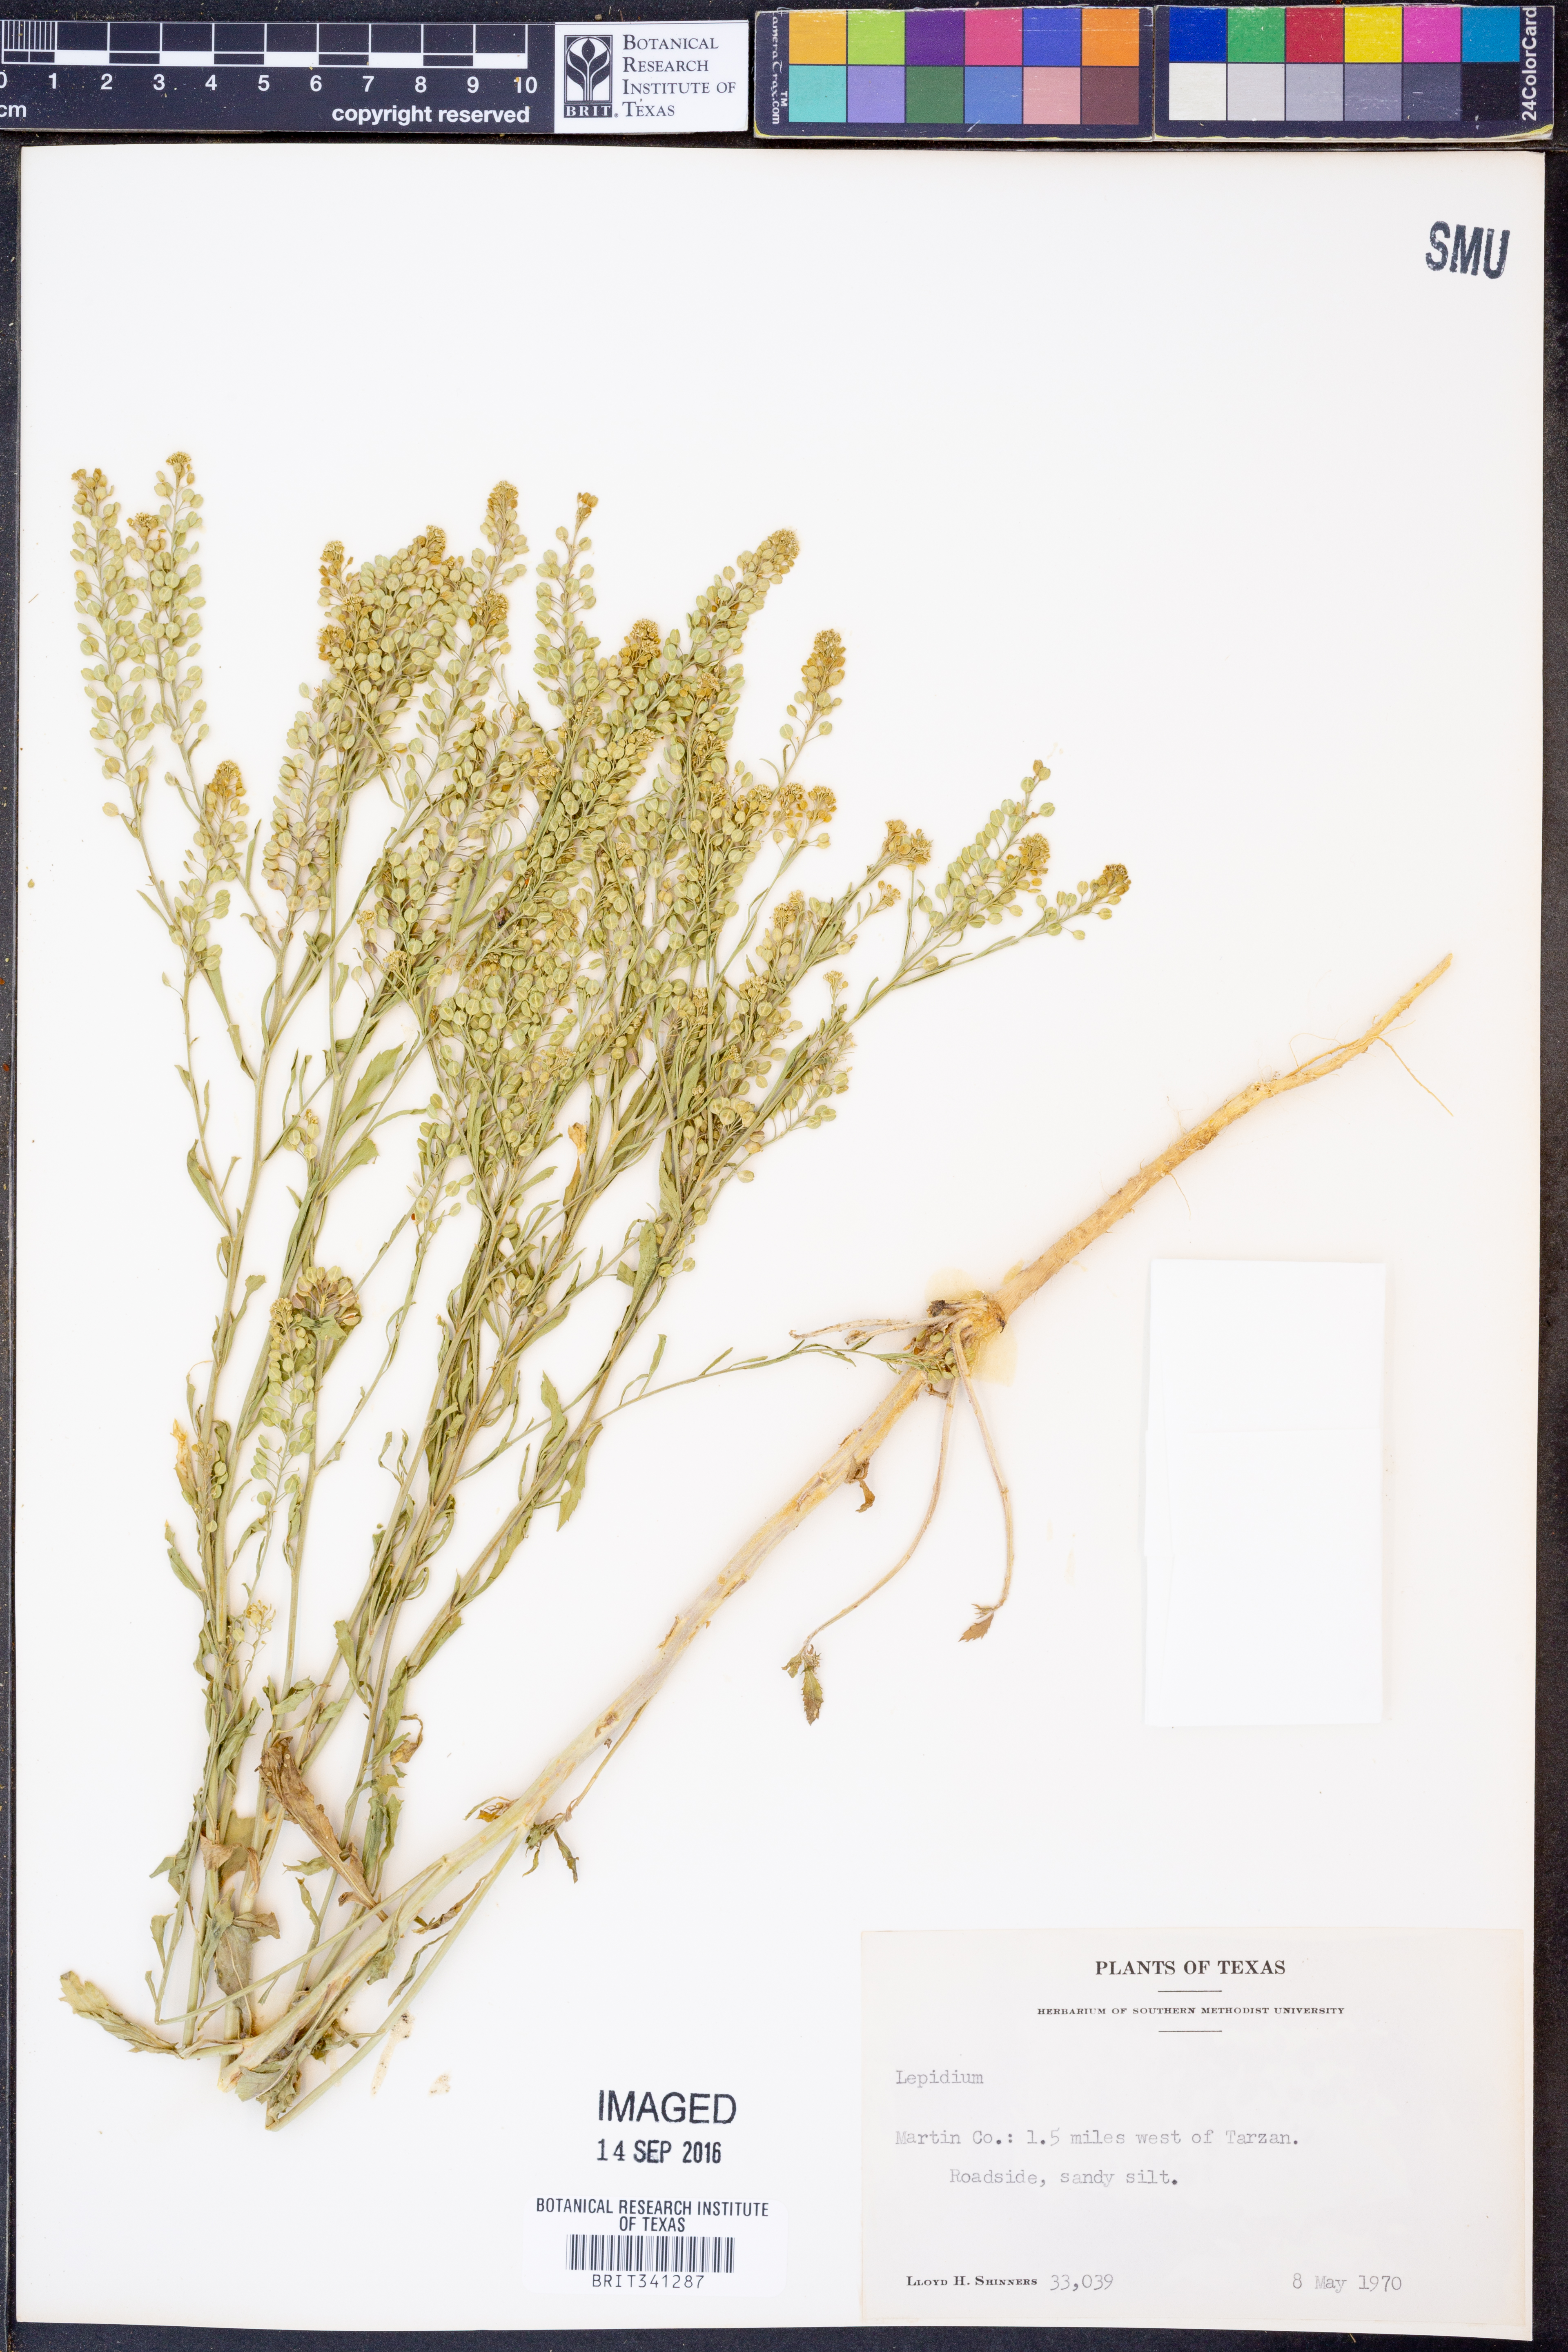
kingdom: Plantae
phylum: Tracheophyta
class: Magnoliopsida
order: Brassicales
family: Brassicaceae
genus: Lepidium
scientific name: Lepidium
